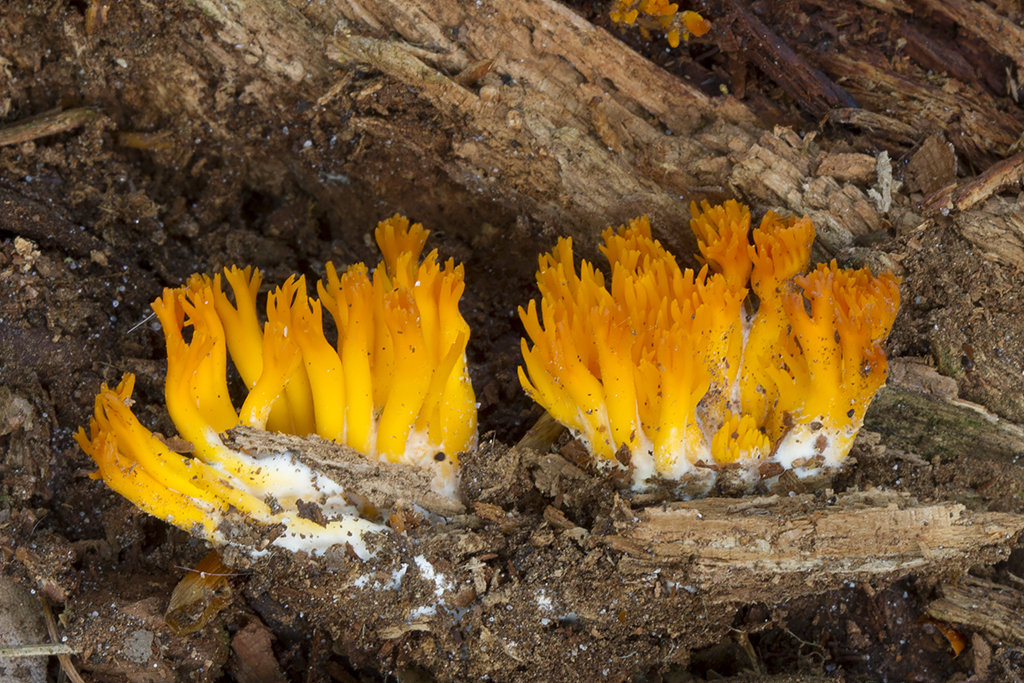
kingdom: Fungi
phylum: Basidiomycota
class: Dacrymycetes
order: Dacrymycetales
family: Dacrymycetaceae
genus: Calocera
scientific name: Calocera viscosa
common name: almindelig guldgaffel
